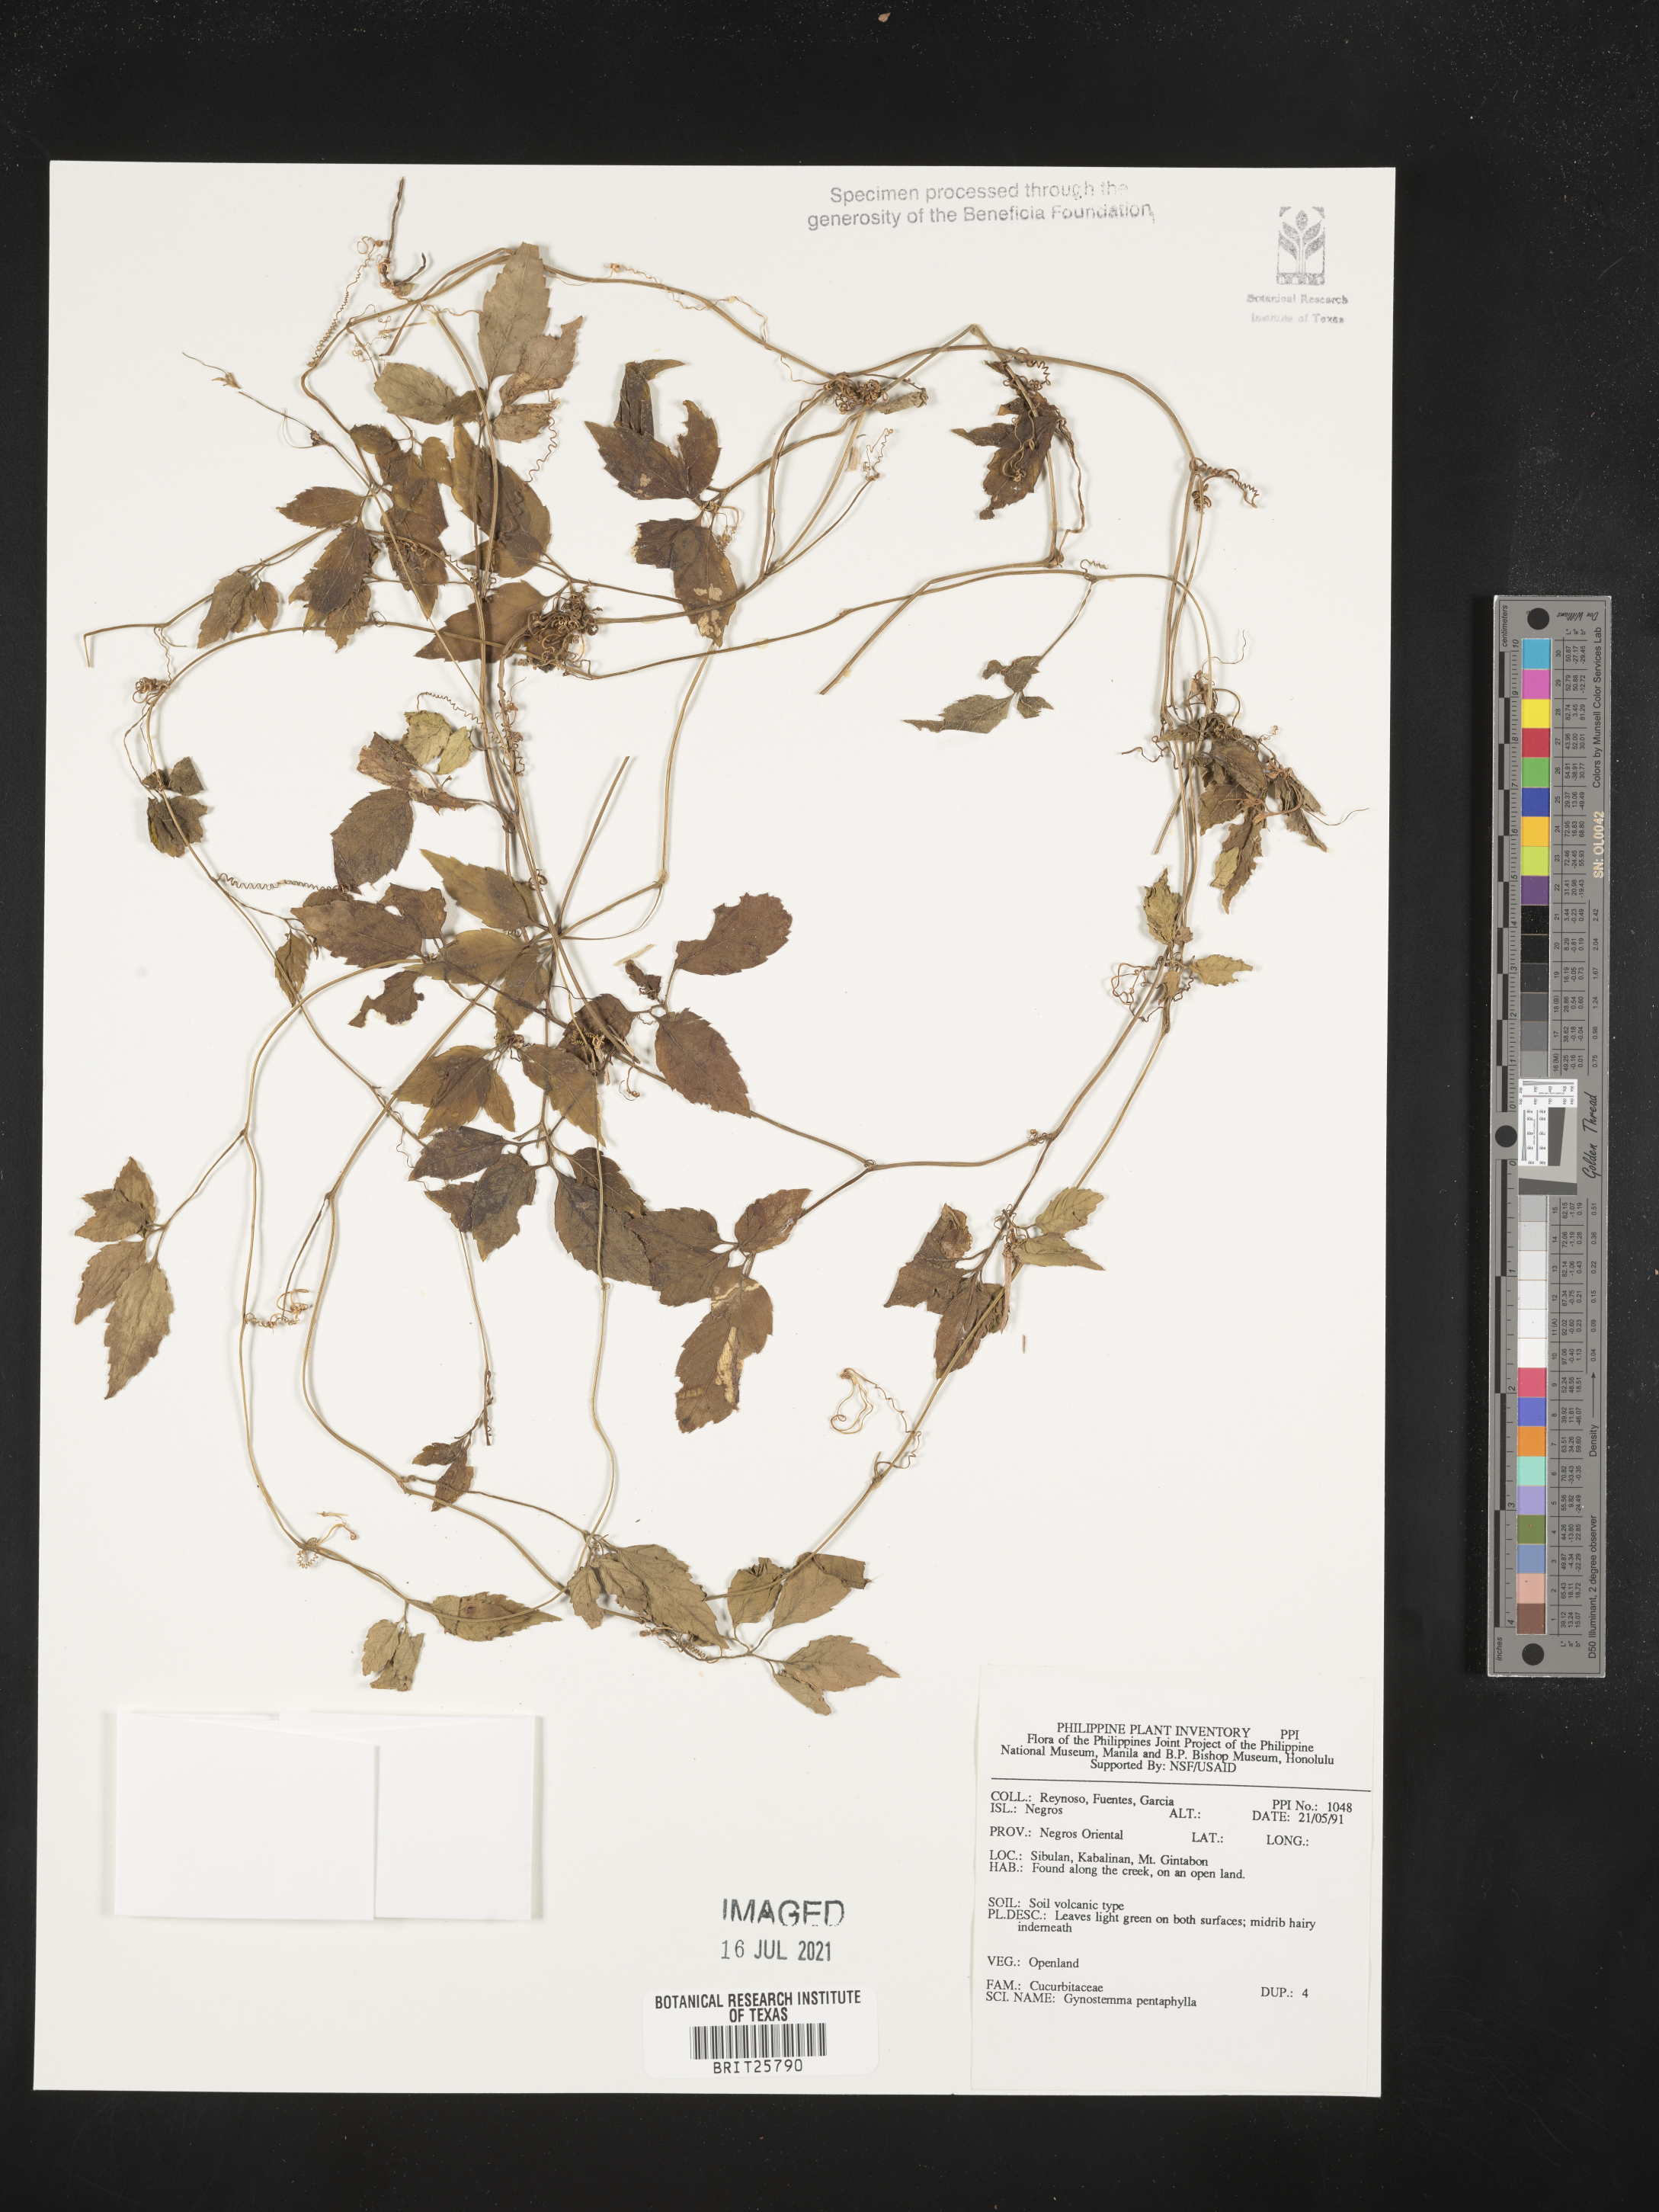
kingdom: Plantae
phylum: Tracheophyta
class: Magnoliopsida
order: Cucurbitales
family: Cucurbitaceae
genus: Gynostemma
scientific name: Gynostemma pentaphyllum
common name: Gynostemma
